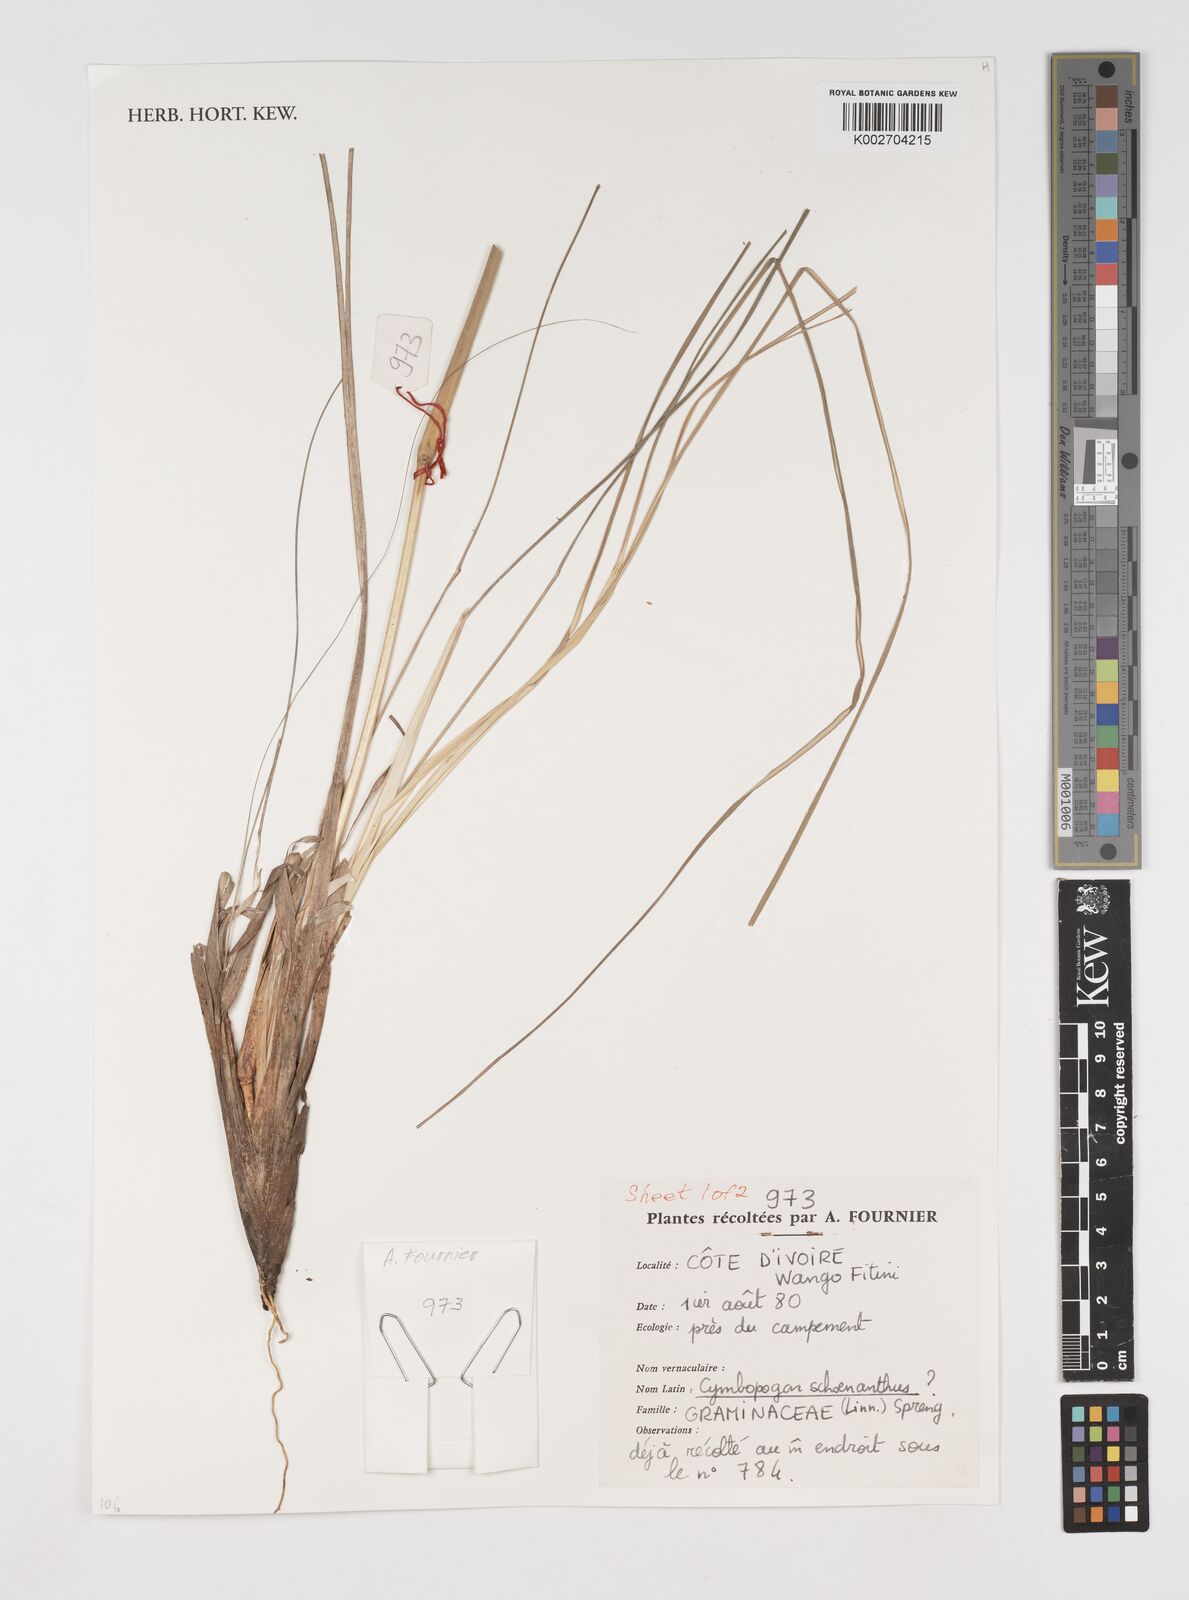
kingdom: Plantae
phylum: Tracheophyta
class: Liliopsida
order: Poales
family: Poaceae
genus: Cymbopogon
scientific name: Cymbopogon schoenanthus
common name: Geranium grass
